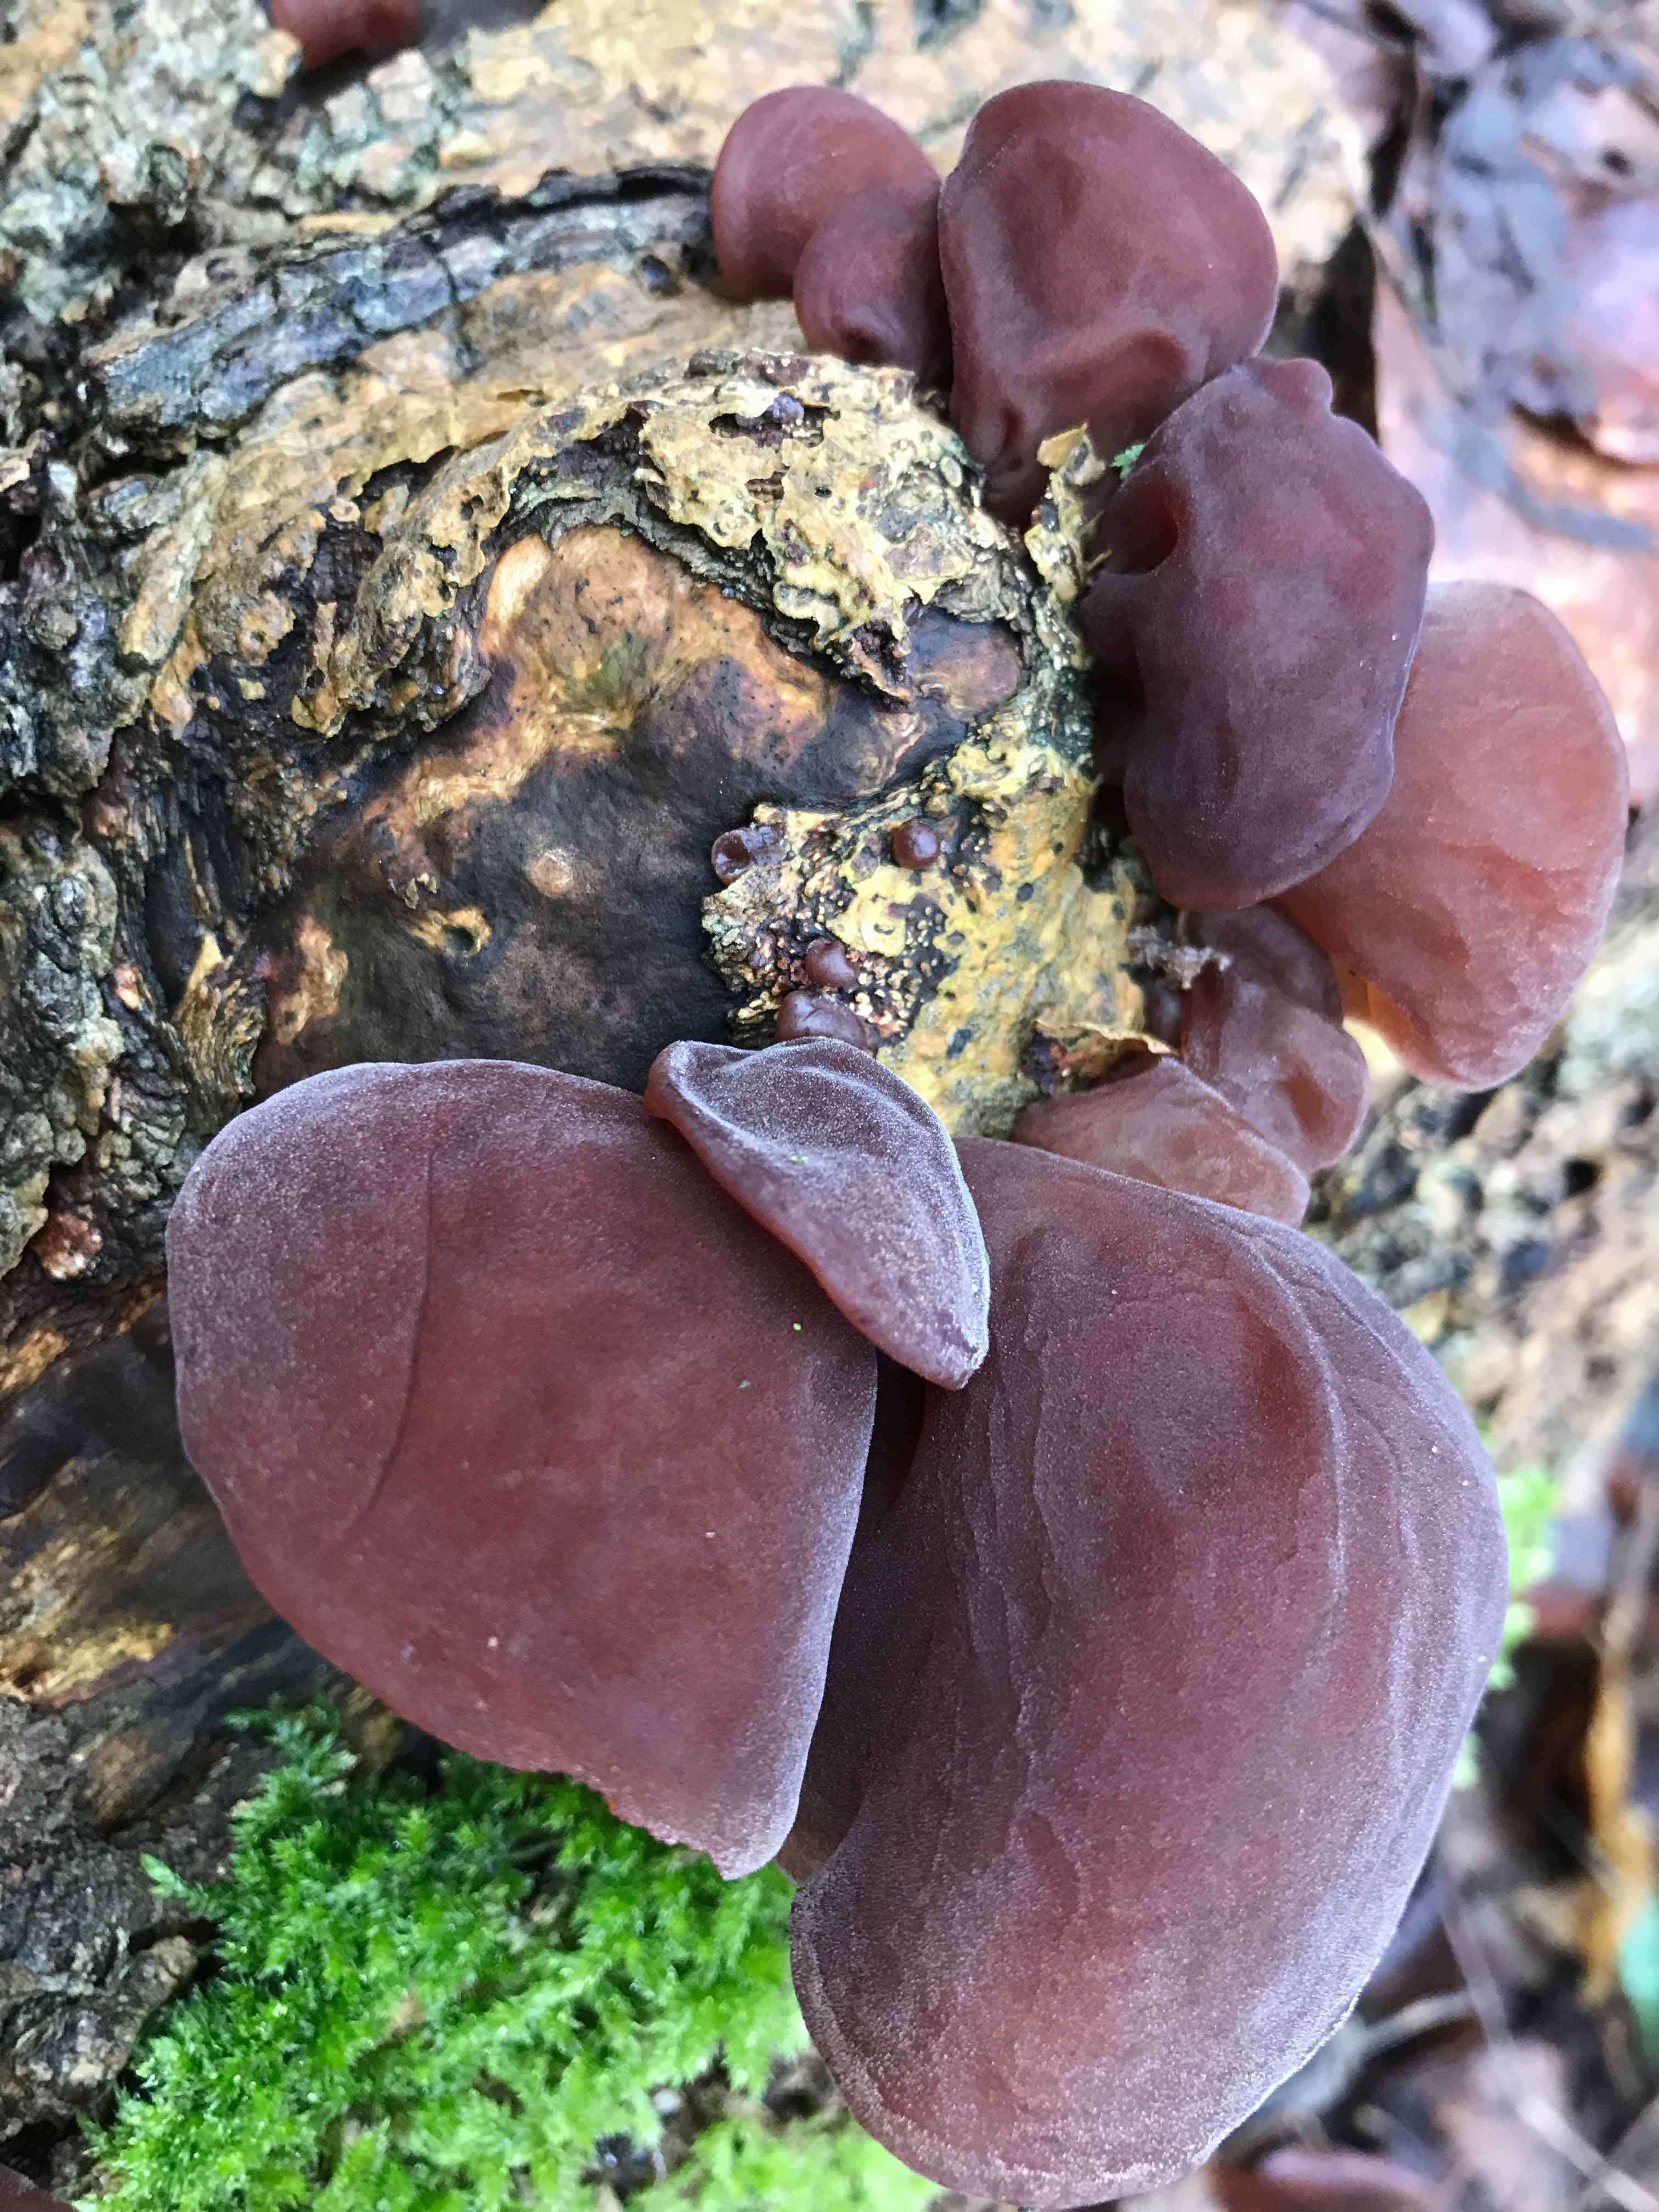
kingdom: Fungi
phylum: Basidiomycota
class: Agaricomycetes
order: Auriculariales
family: Auriculariaceae
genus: Auricularia
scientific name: Auricularia auricula-judae
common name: almindelig judasøre
